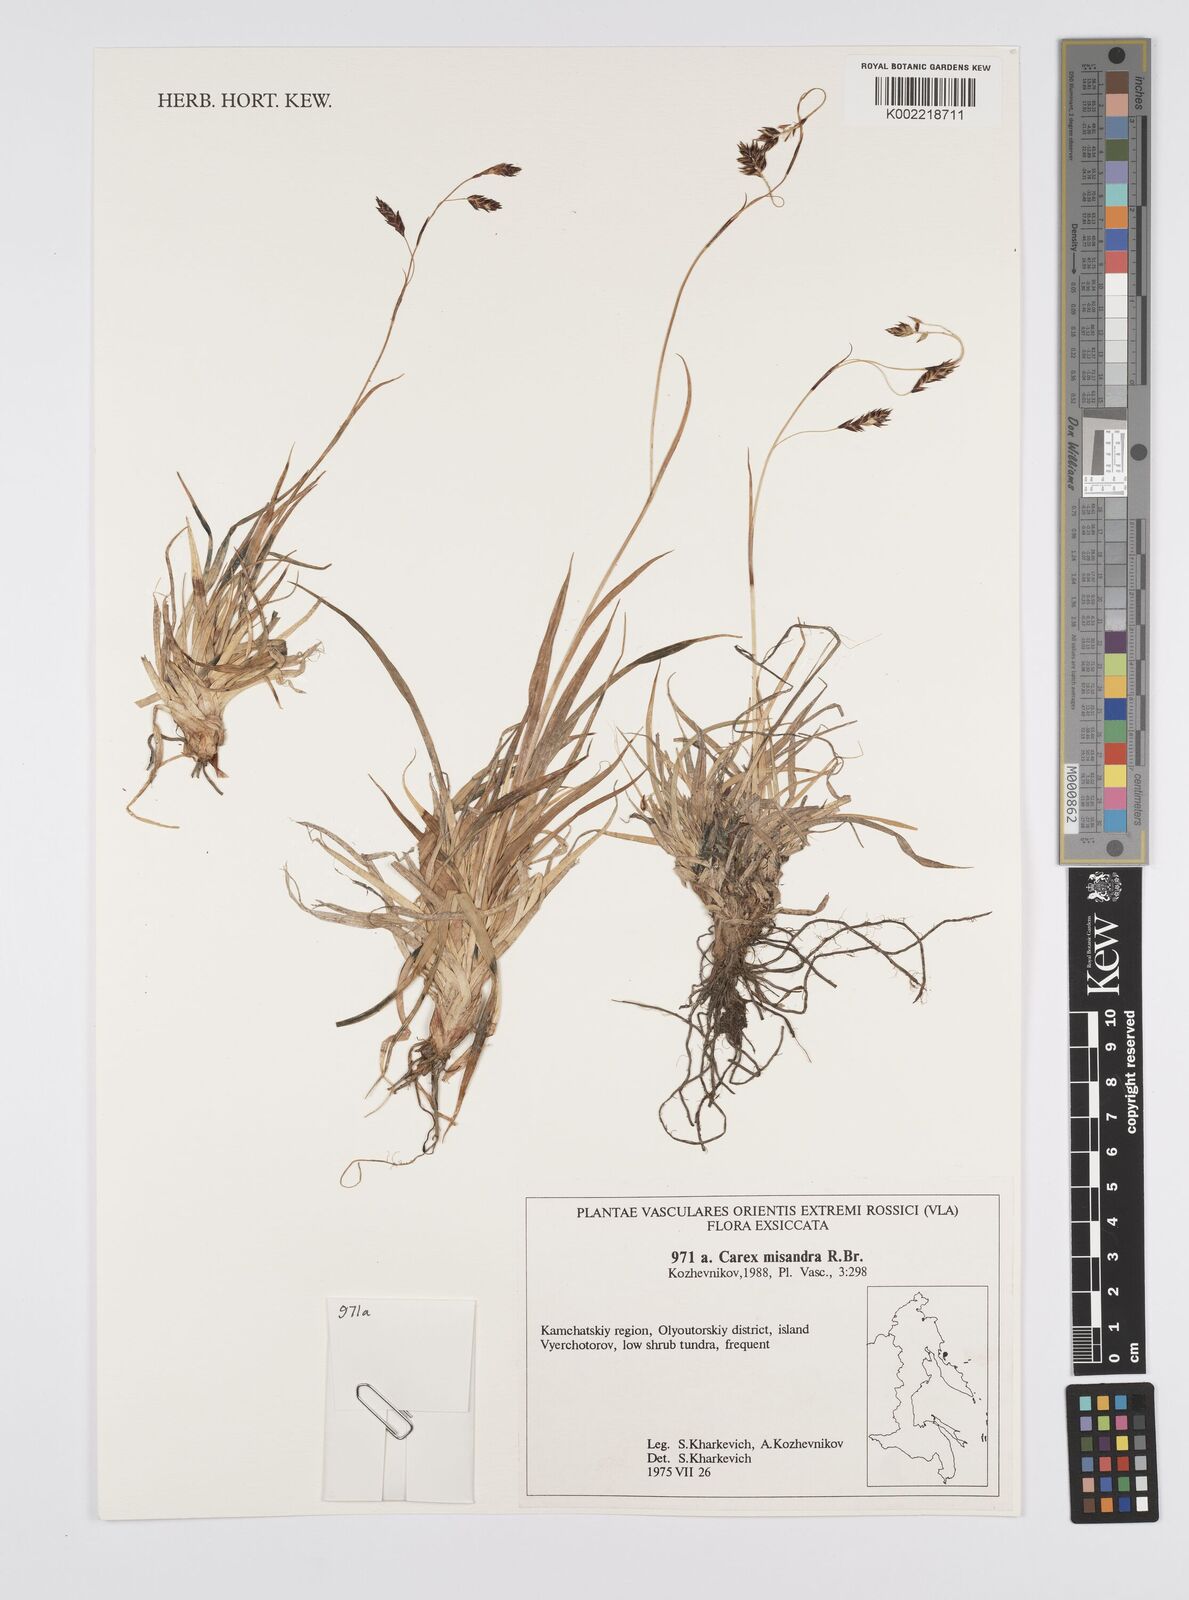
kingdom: Plantae
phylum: Tracheophyta
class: Liliopsida
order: Poales
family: Cyperaceae
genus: Carex
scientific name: Carex fuliginosa
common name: Few-flowered sedge
